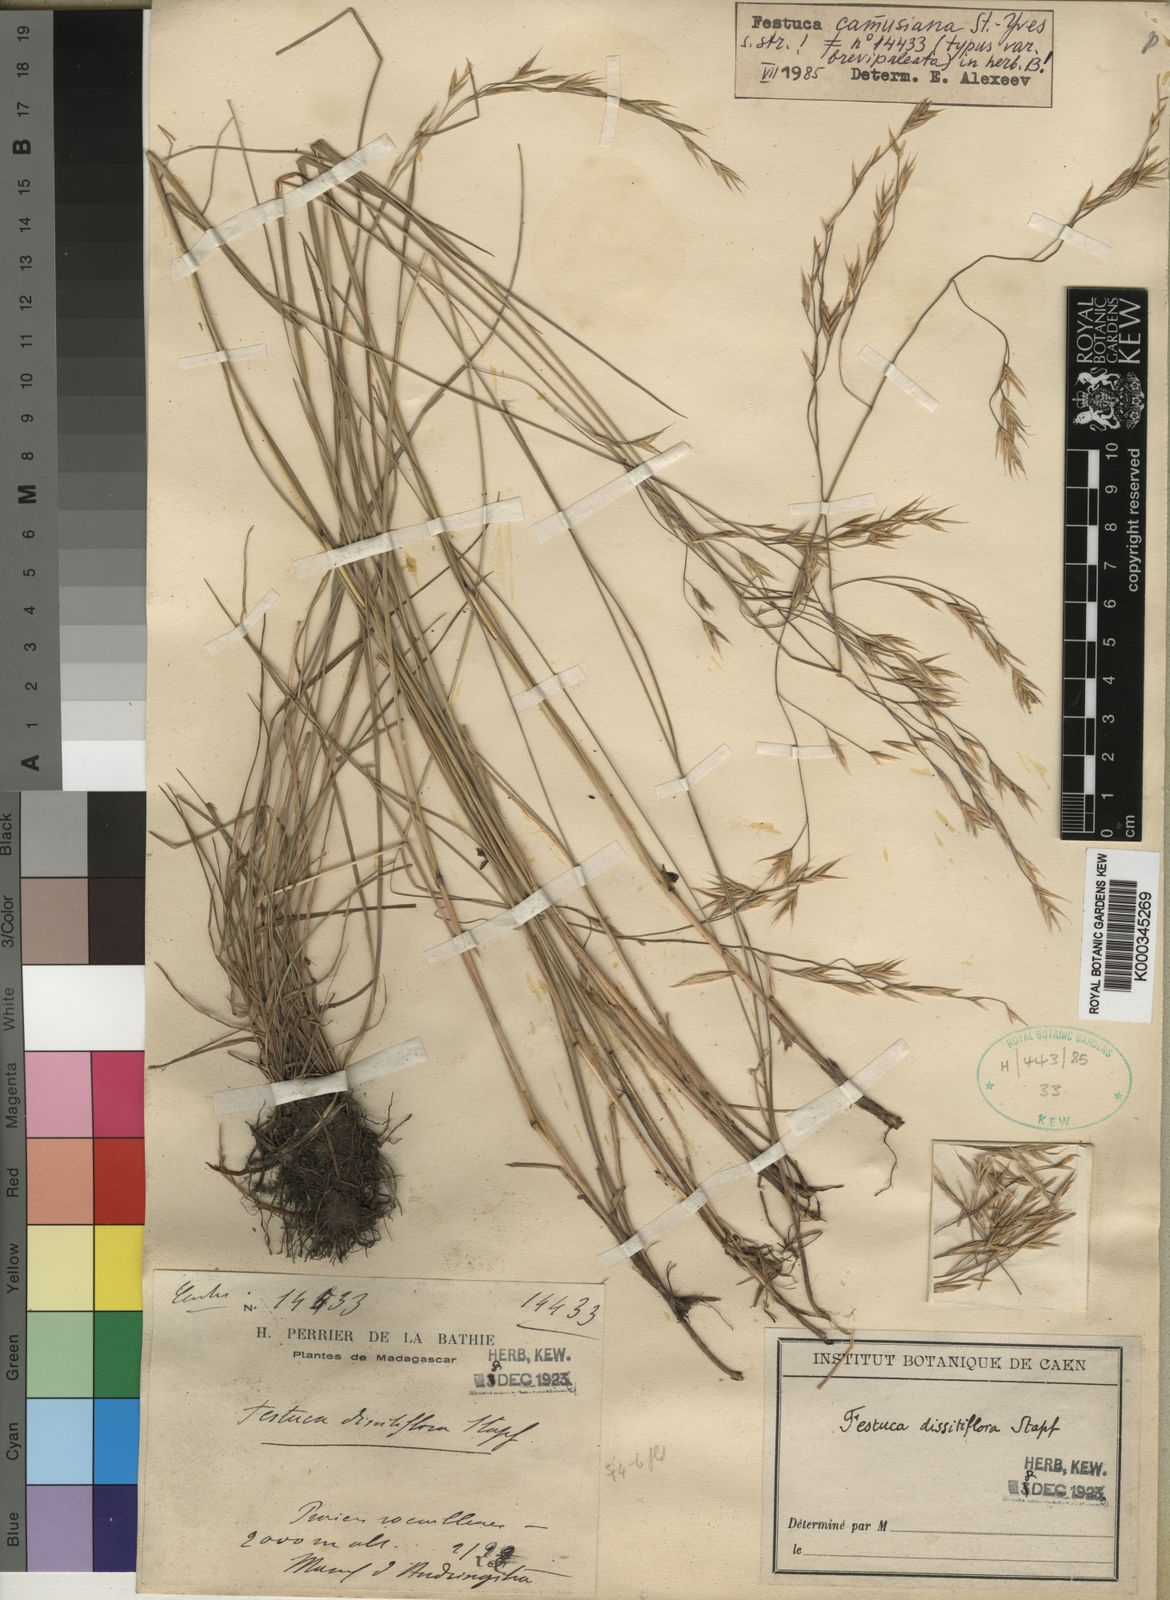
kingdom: Plantae
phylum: Tracheophyta
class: Liliopsida
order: Poales
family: Poaceae
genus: Festuca
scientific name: Festuca camusiana
